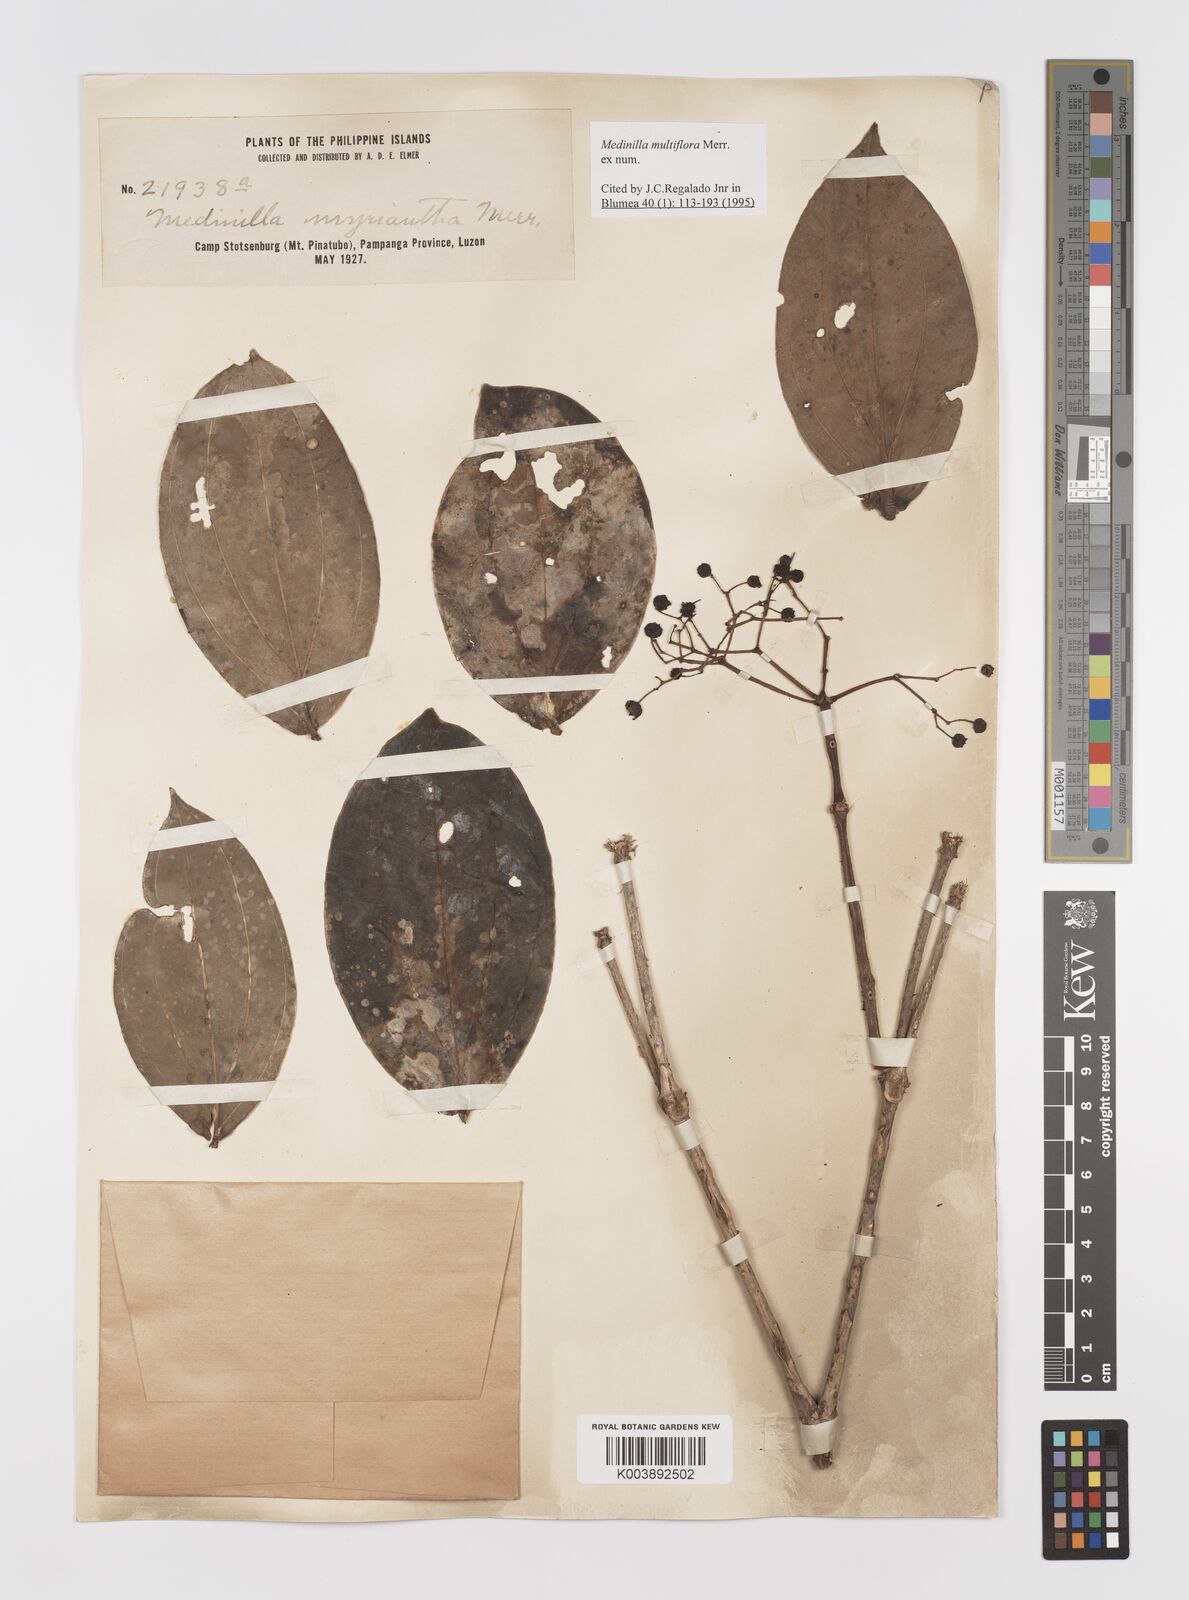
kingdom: Plantae
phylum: Tracheophyta
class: Magnoliopsida
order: Myrtales
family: Melastomataceae
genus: Medinilla
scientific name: Medinilla multiflora
